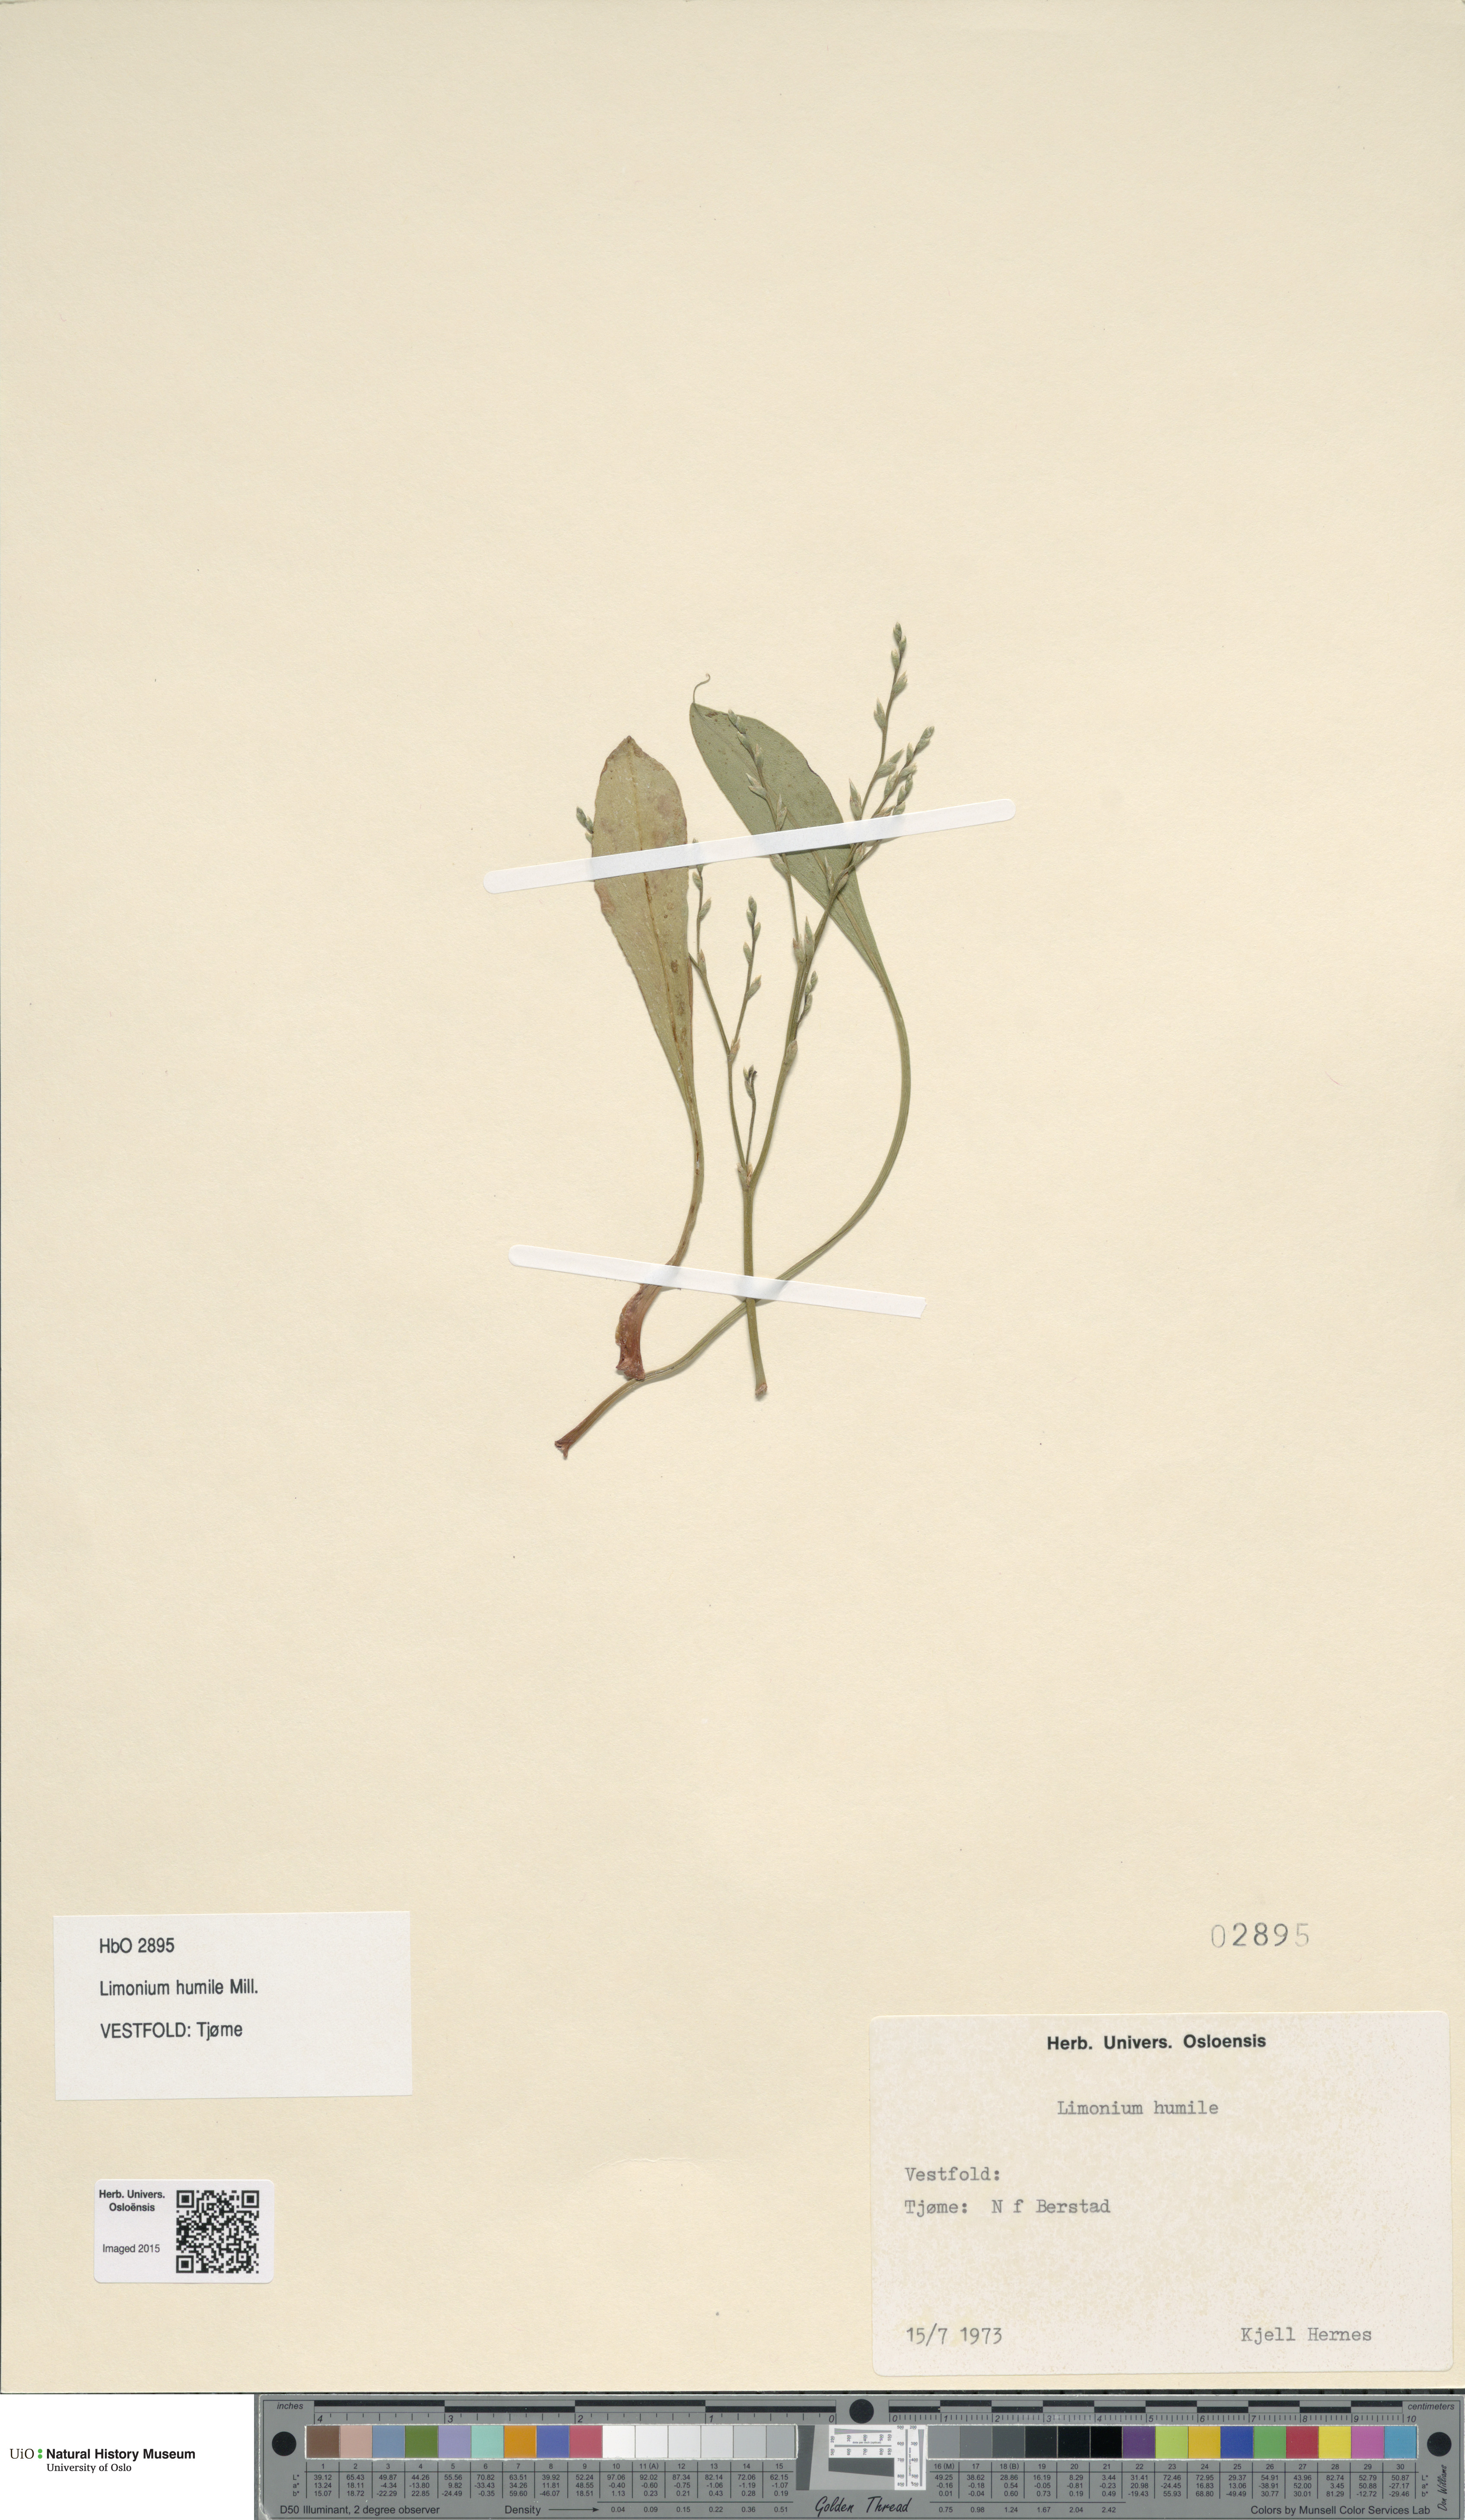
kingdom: Plantae
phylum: Tracheophyta
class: Magnoliopsida
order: Caryophyllales
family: Plumbaginaceae
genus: Limonium
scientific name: Limonium humile
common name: Lax-flowered sea-lavender
